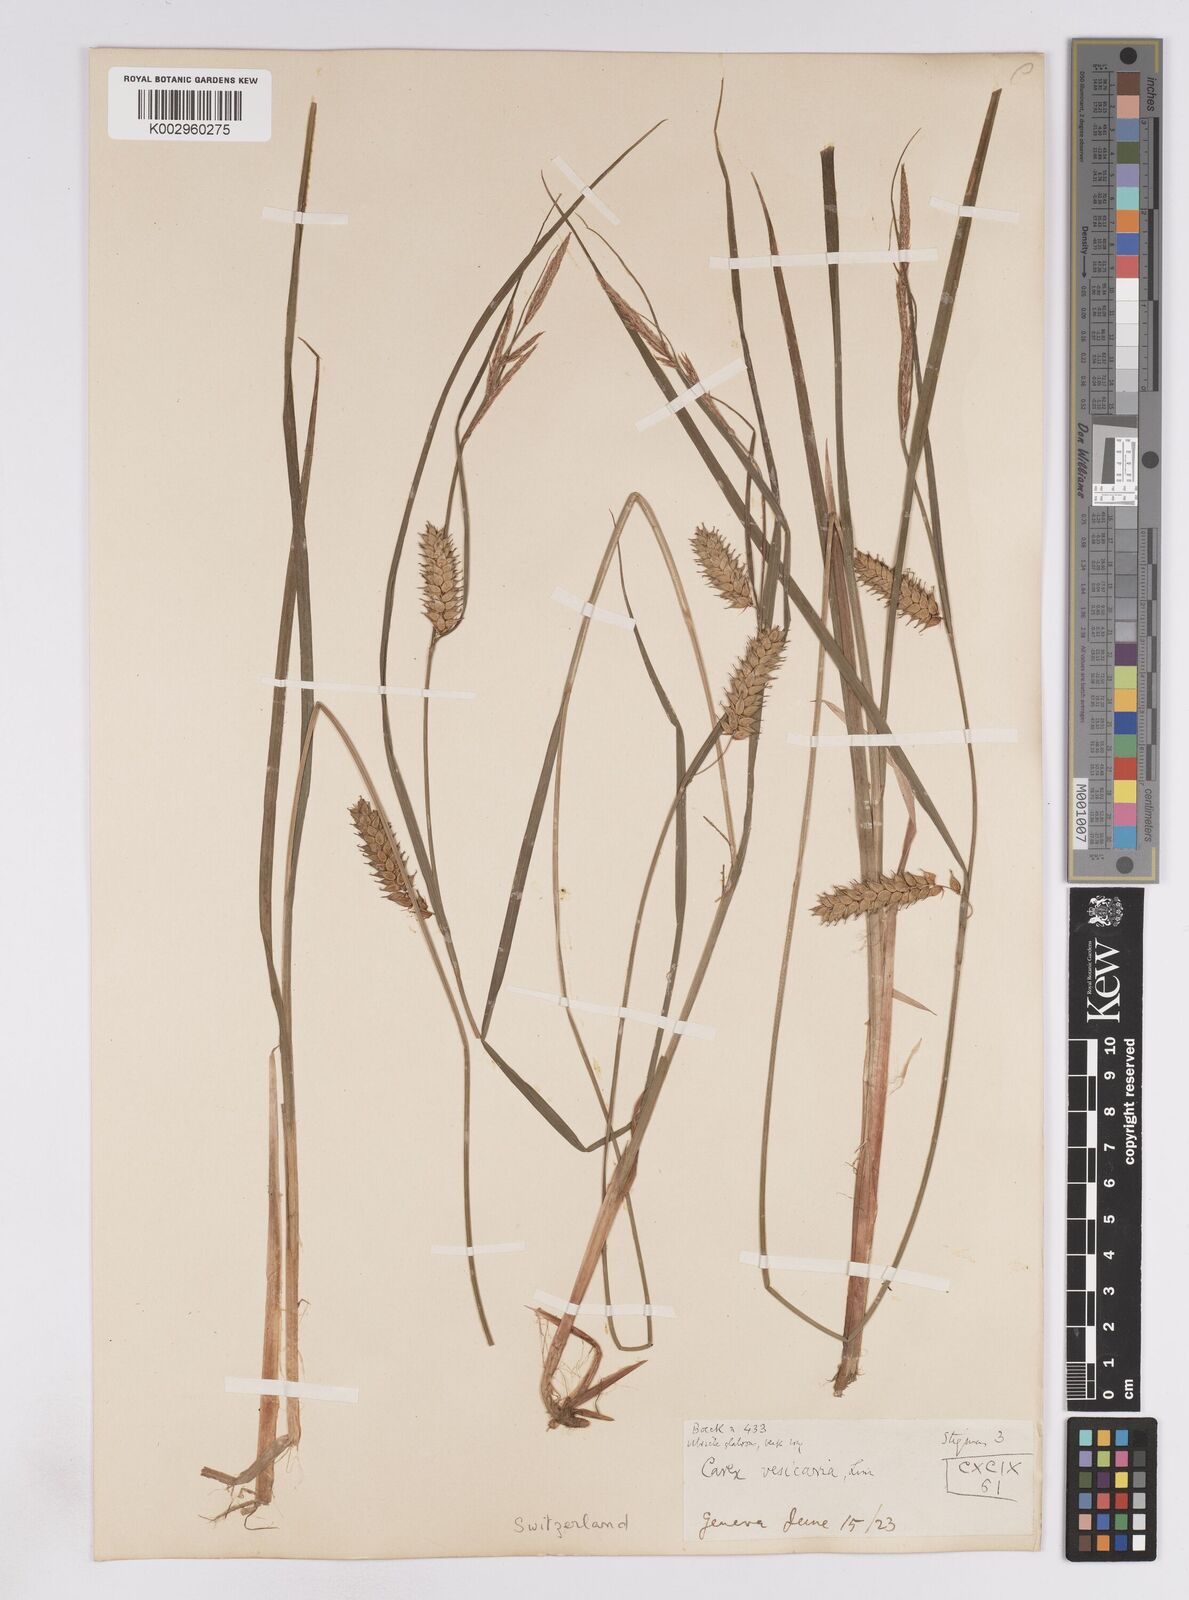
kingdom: Plantae
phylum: Tracheophyta
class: Liliopsida
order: Poales
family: Cyperaceae
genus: Carex
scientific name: Carex vesicaria
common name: Bladder-sedge
